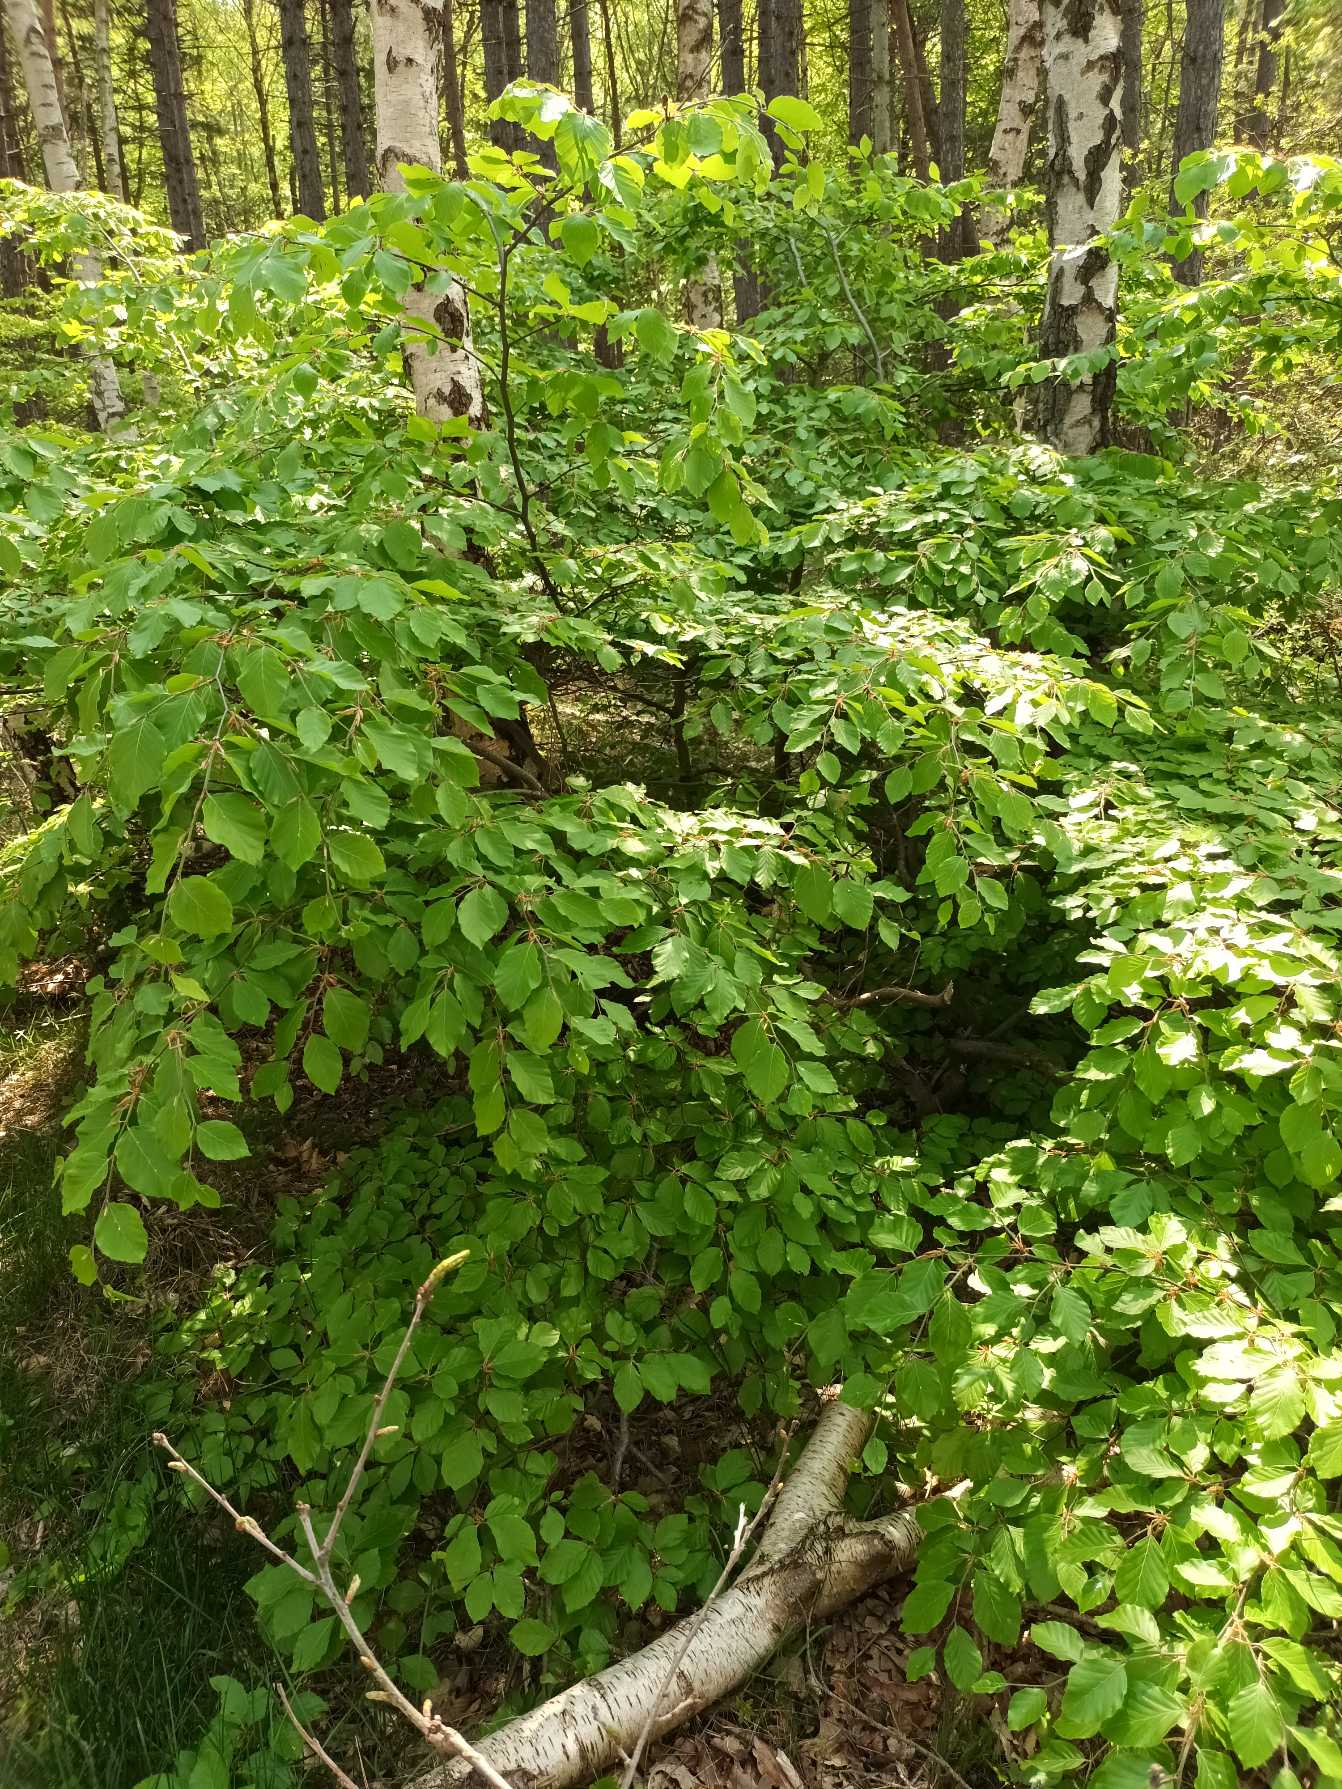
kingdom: Plantae
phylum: Tracheophyta
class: Magnoliopsida
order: Fagales
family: Fagaceae
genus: Fagus
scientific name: Fagus sylvatica
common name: Bøg
